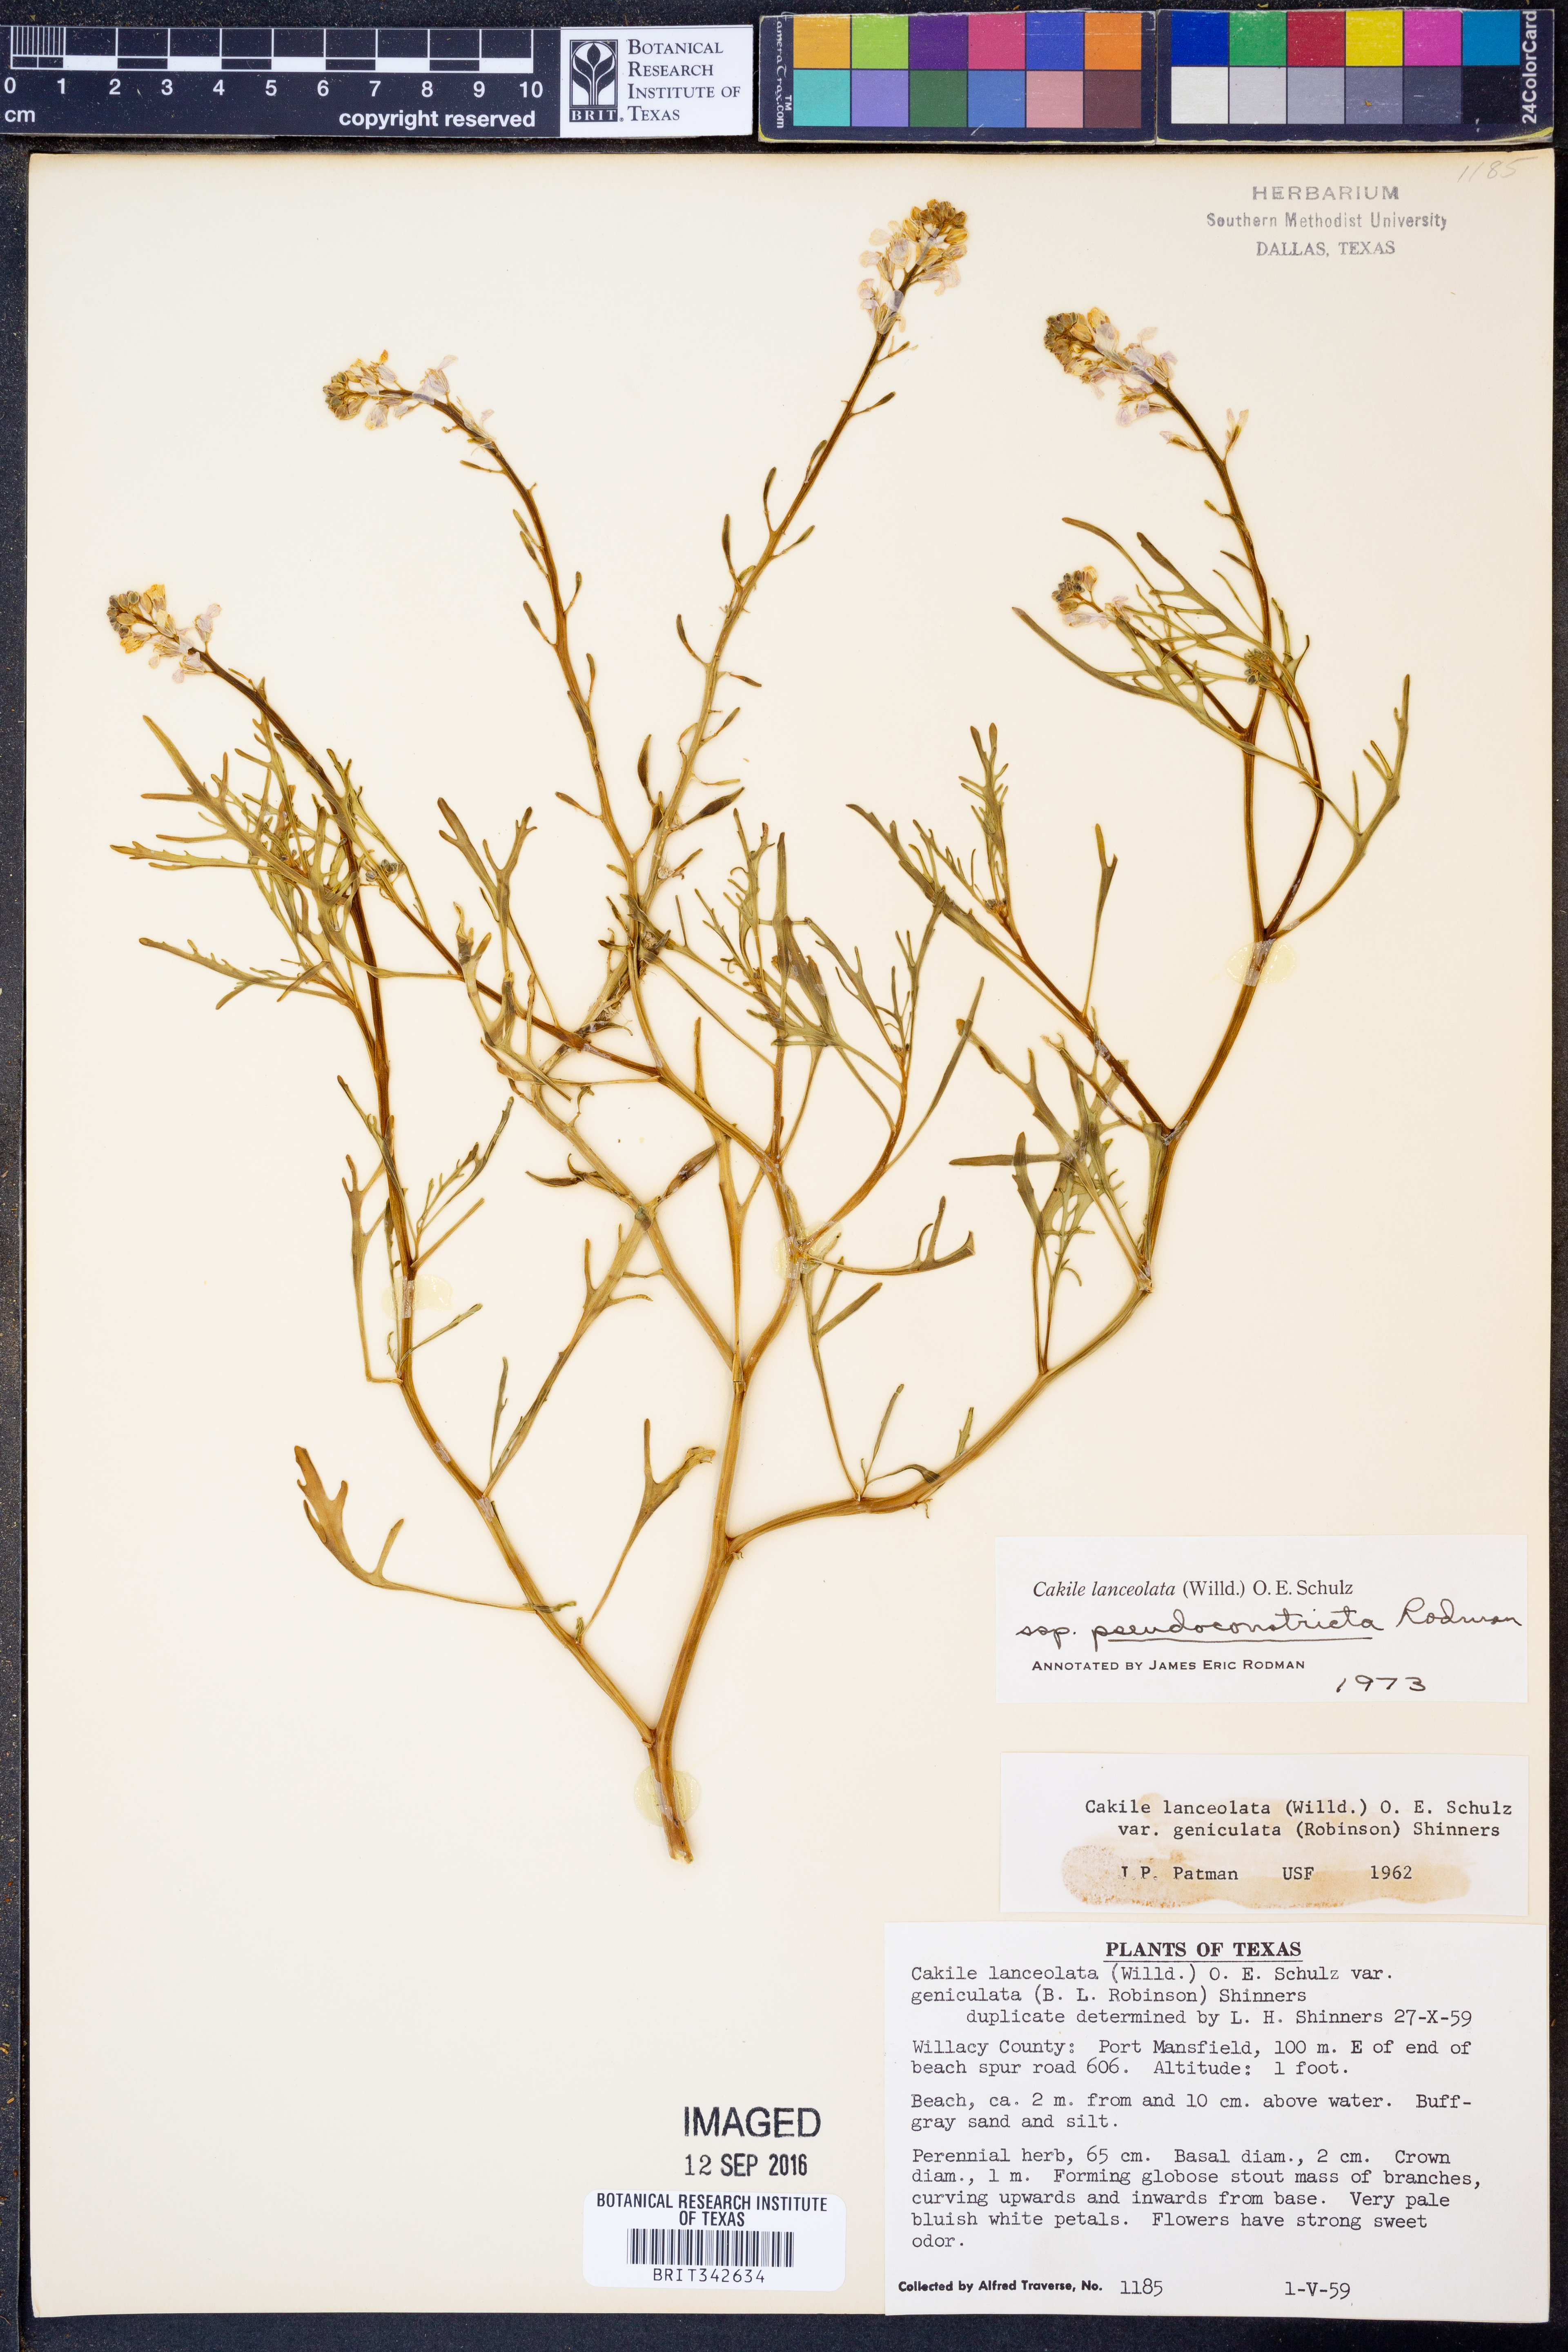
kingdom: Plantae
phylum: Tracheophyta
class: Magnoliopsida
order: Brassicales
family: Brassicaceae
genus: Cakile
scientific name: Cakile lanceolata
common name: Sea rocket
